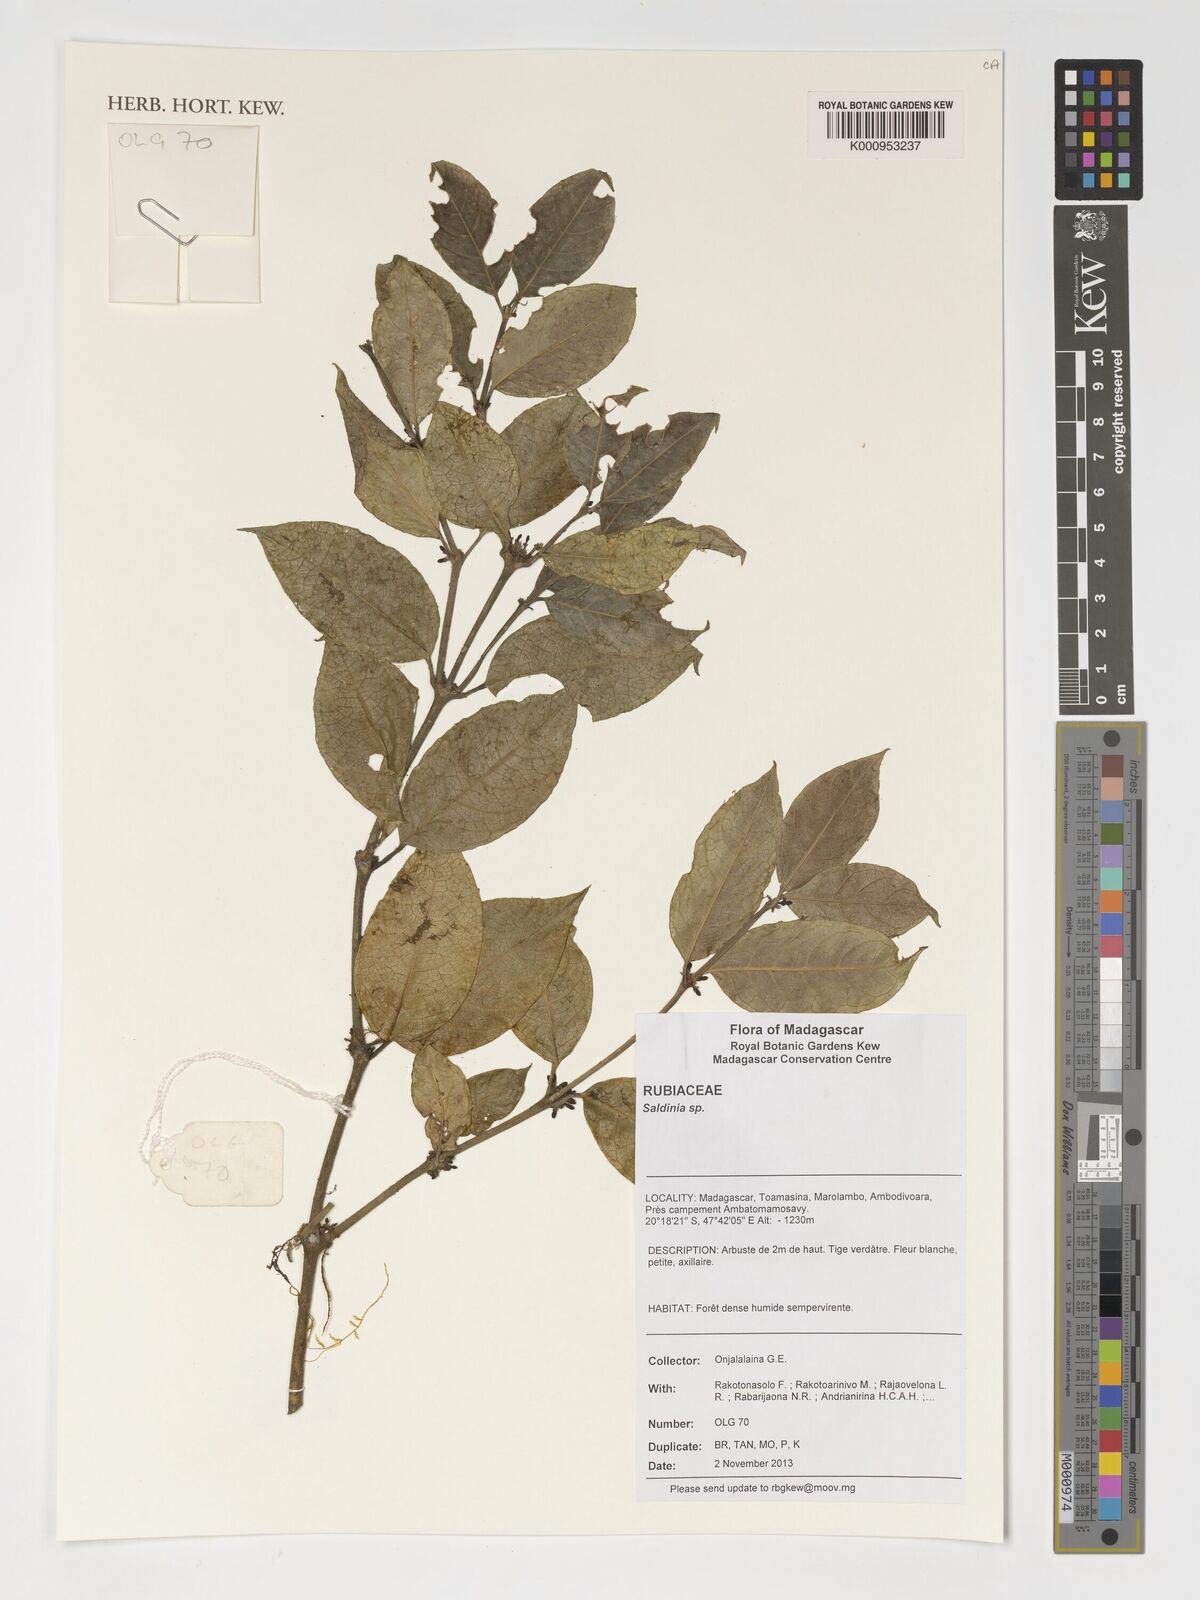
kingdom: Plantae
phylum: Tracheophyta
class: Magnoliopsida
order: Gentianales
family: Rubiaceae
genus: Saldinia
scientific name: Saldinia
